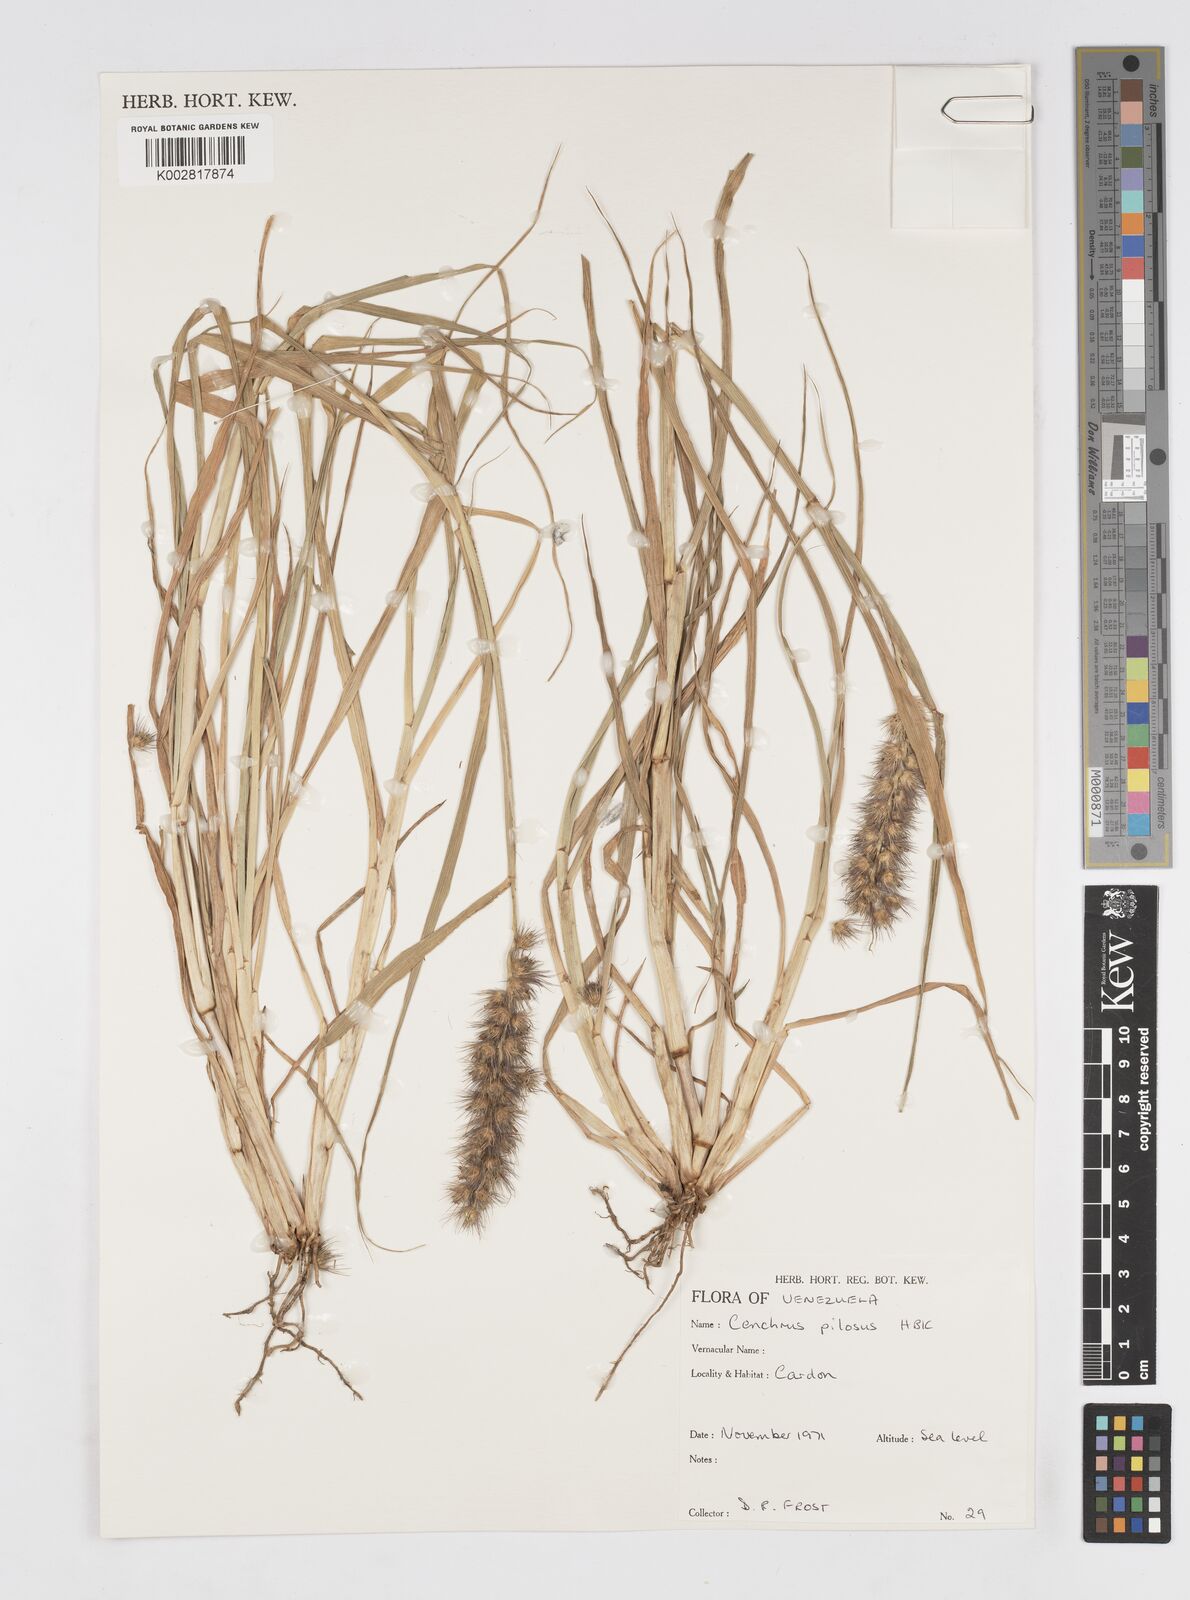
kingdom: Plantae
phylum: Tracheophyta
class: Liliopsida
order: Poales
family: Poaceae
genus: Cenchrus
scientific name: Cenchrus pilosus
